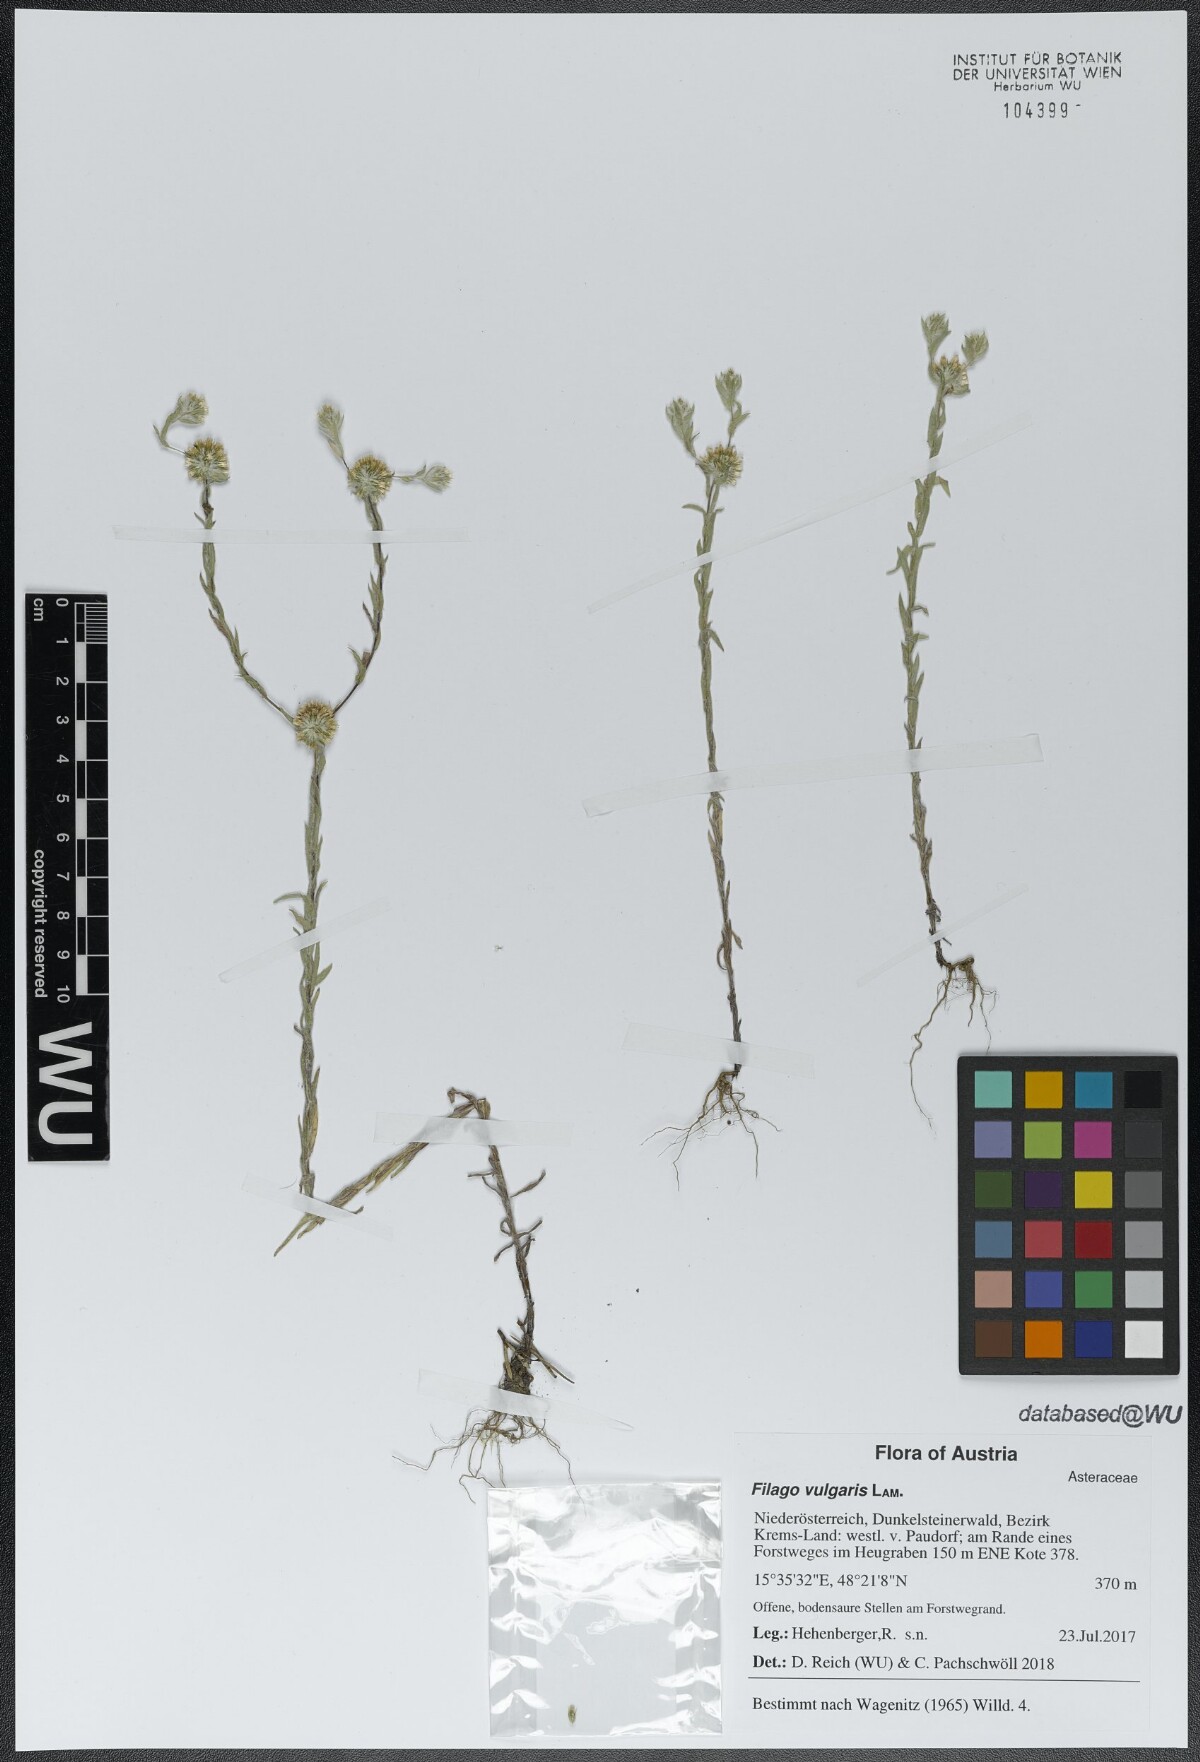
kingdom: Plantae
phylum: Tracheophyta
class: Magnoliopsida
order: Asterales
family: Asteraceae
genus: Filago
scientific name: Filago germanica
